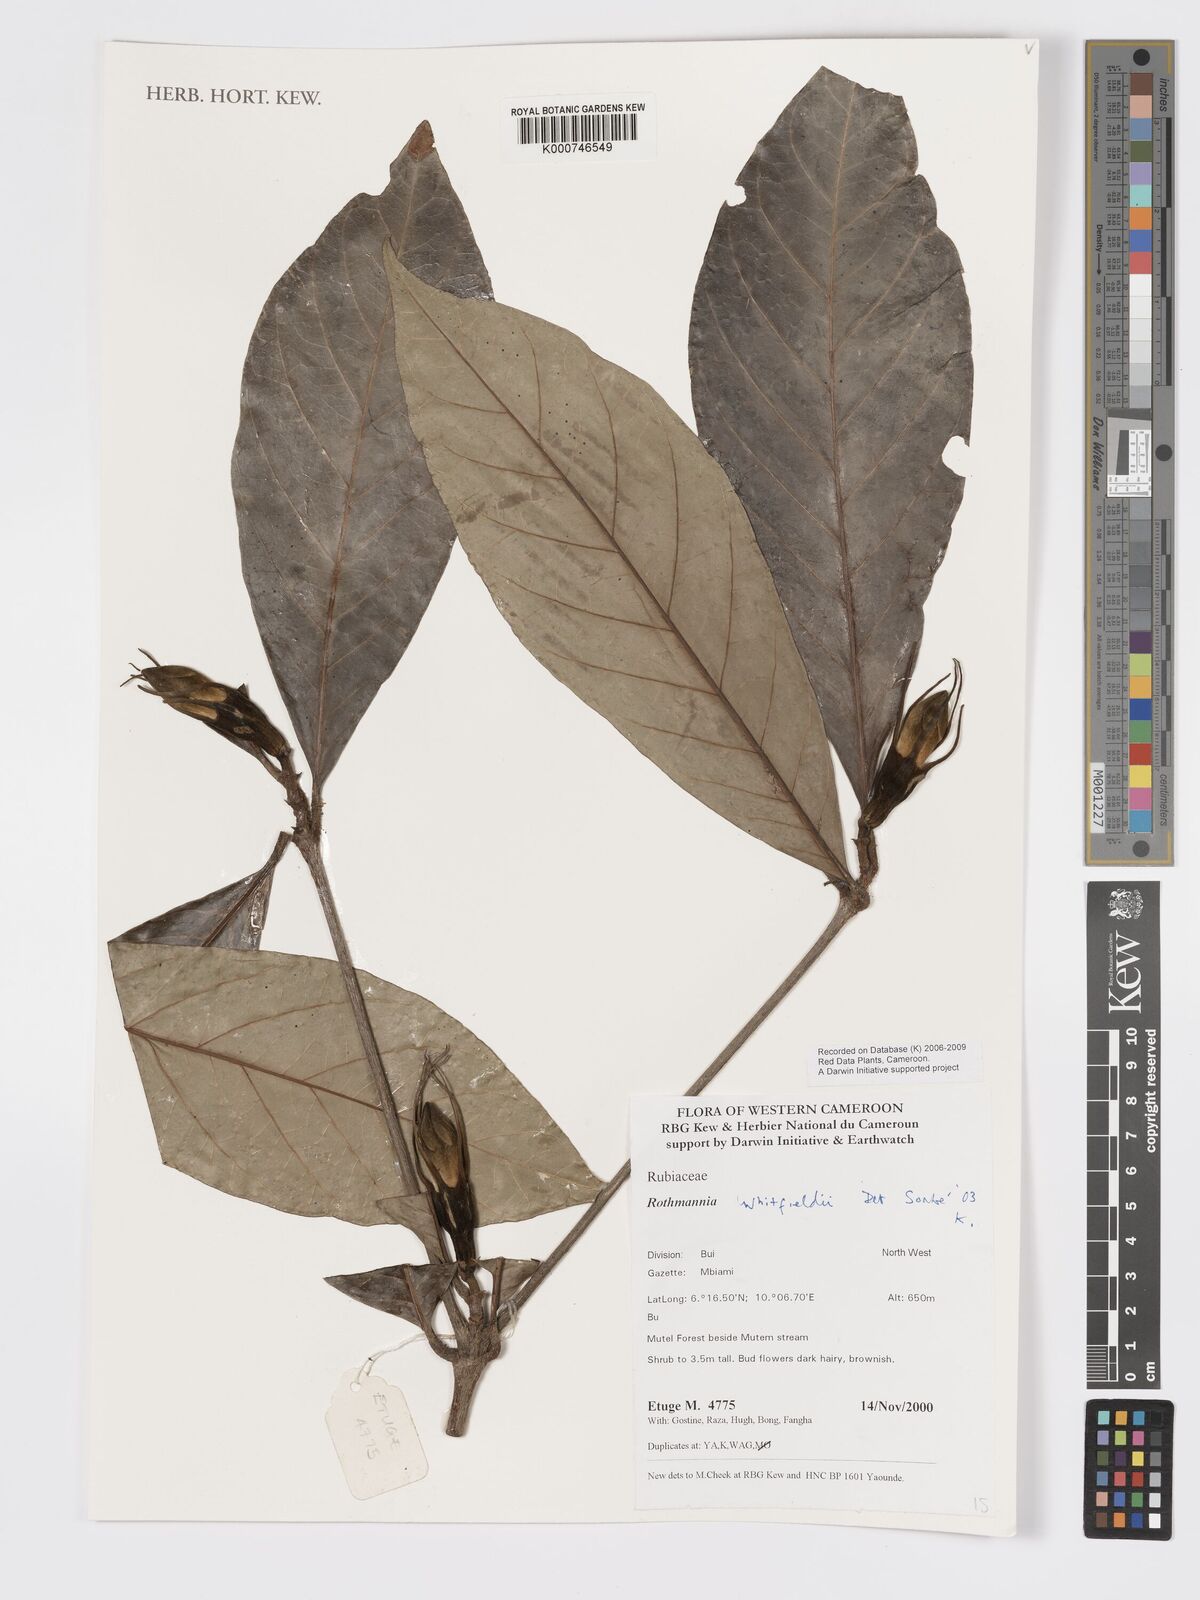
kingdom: Plantae
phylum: Tracheophyta
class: Magnoliopsida
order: Gentianales
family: Rubiaceae
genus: Rothmannia
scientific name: Rothmannia whitfieldii
